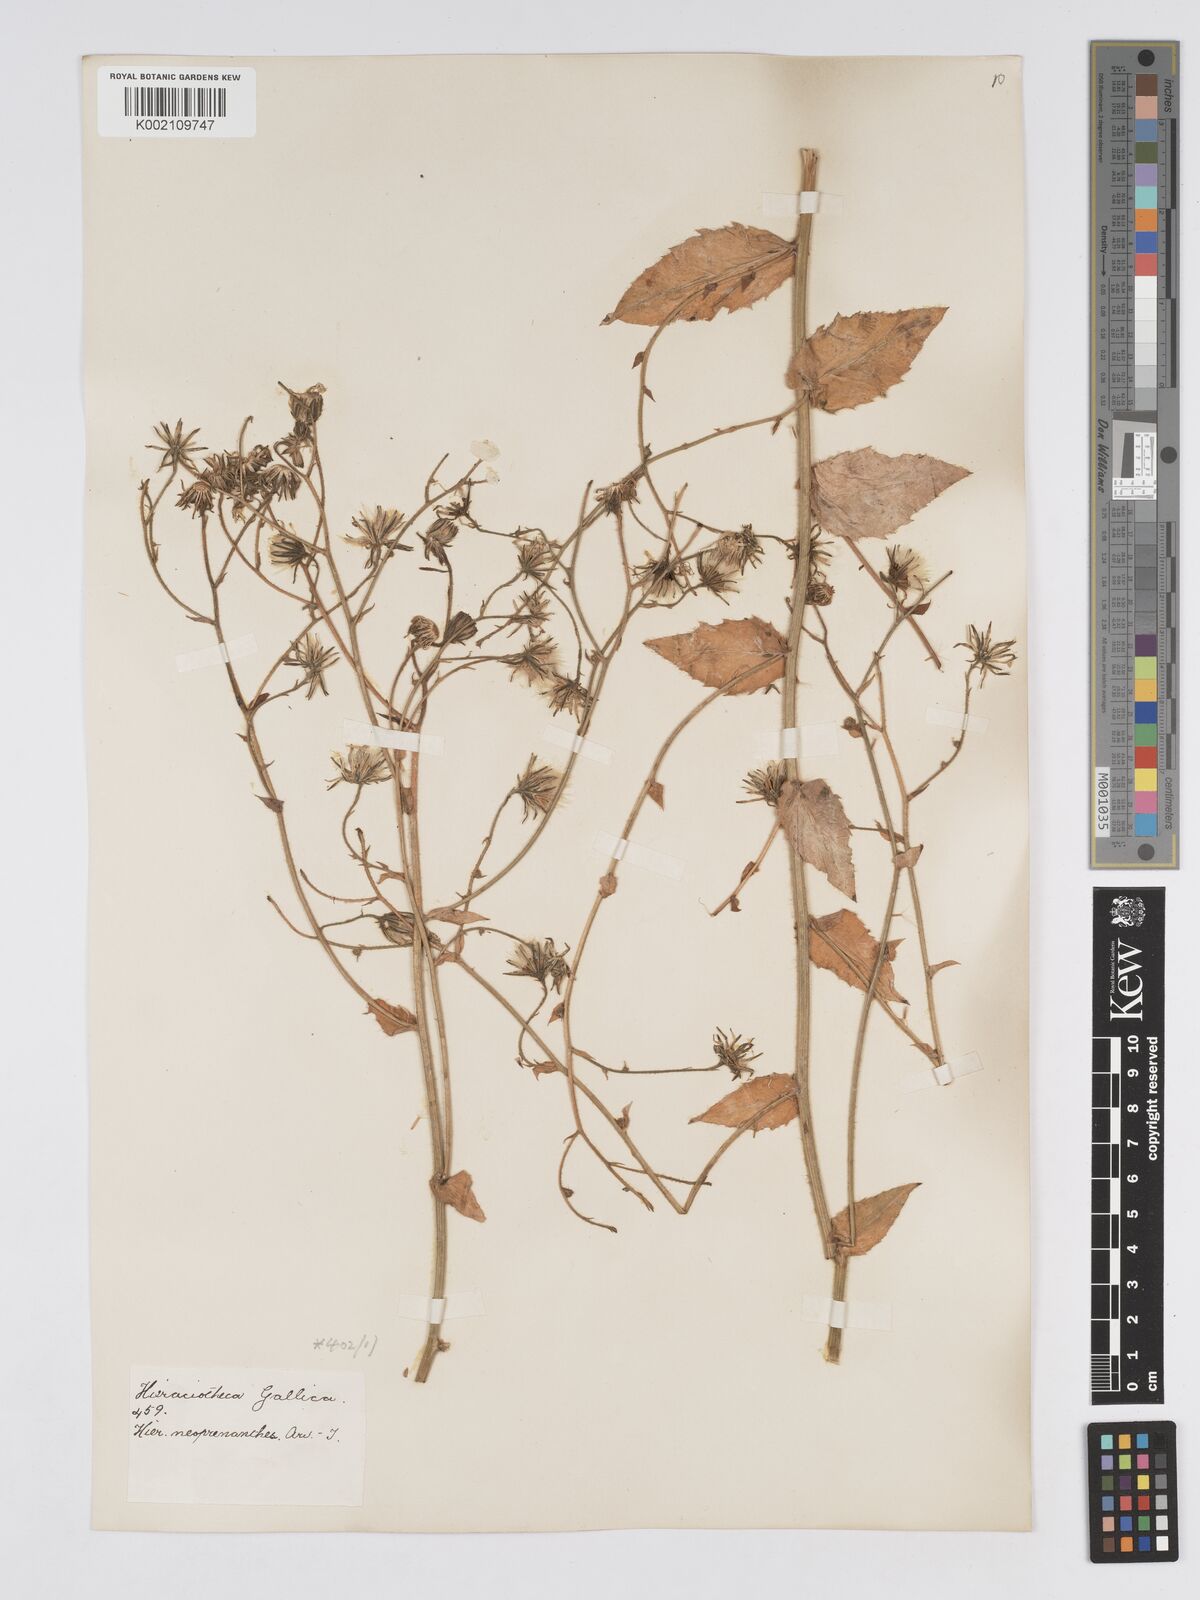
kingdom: Plantae
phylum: Tracheophyta
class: Magnoliopsida
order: Asterales
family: Asteraceae
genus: Hieracium
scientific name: Hieracium symphytaceum
